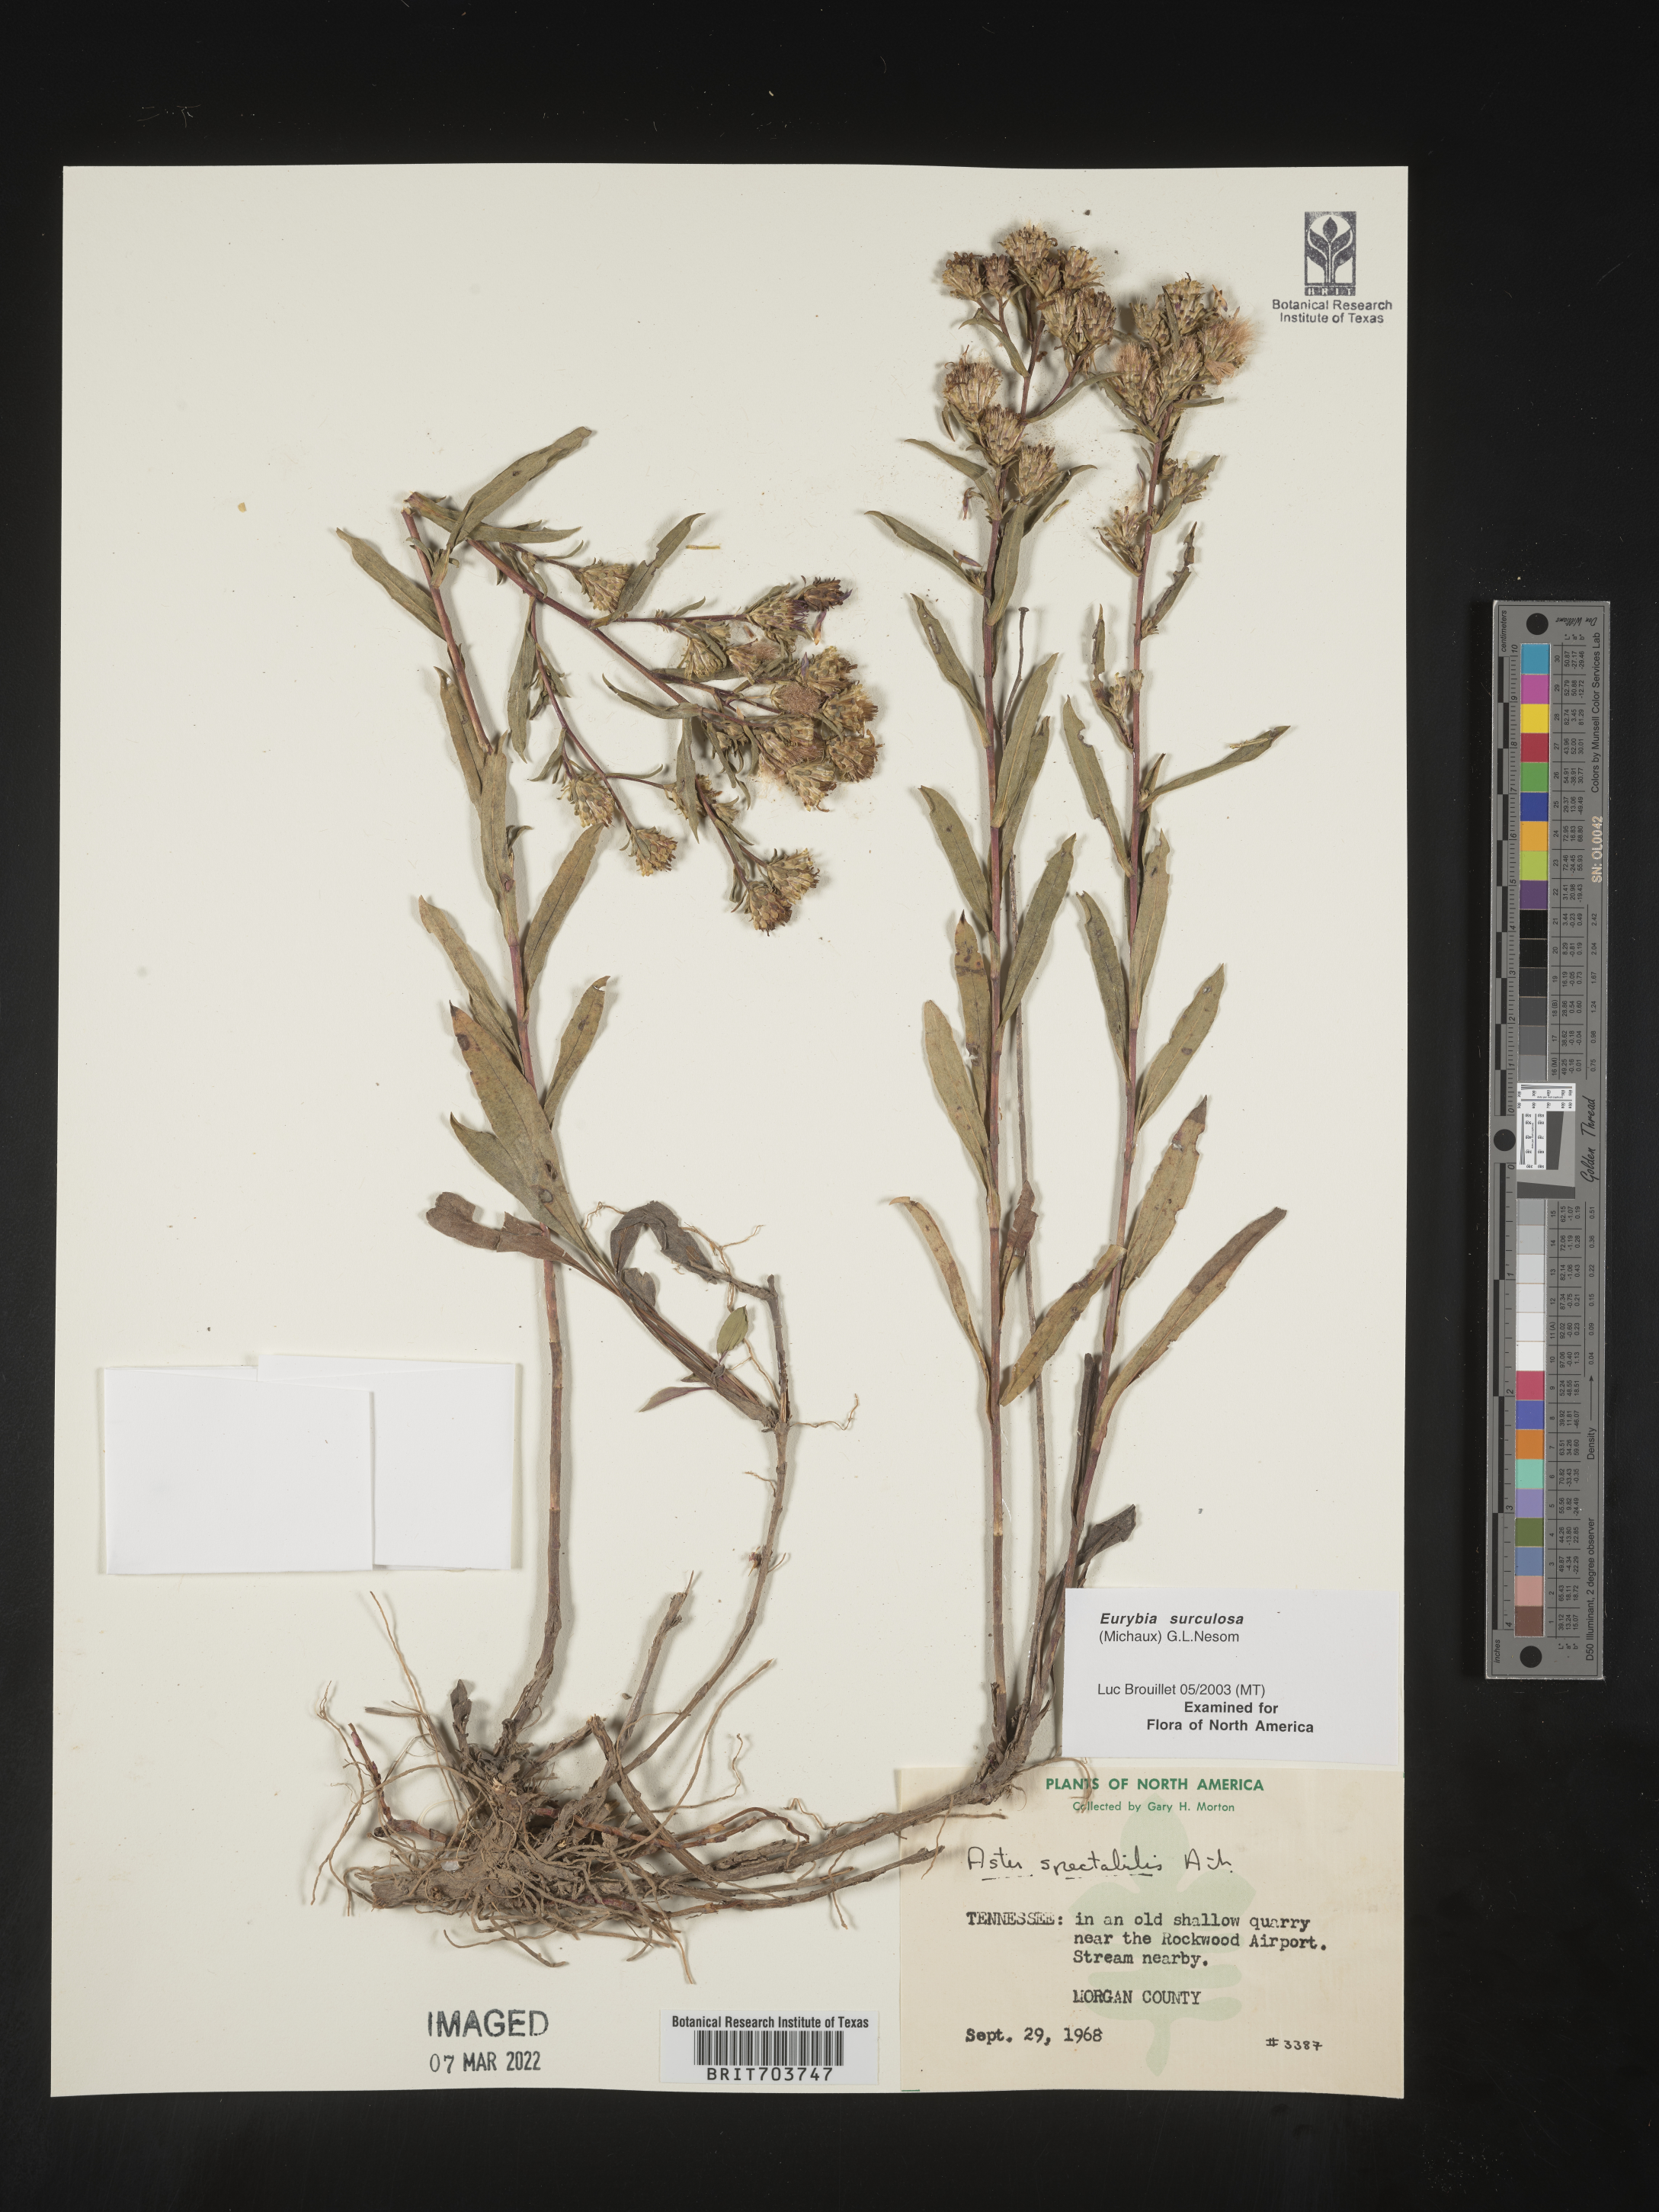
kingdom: Plantae
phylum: Tracheophyta
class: Magnoliopsida
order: Asterales
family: Asteraceae
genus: Eurybia
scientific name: Eurybia surculosa
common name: Creeping aster
